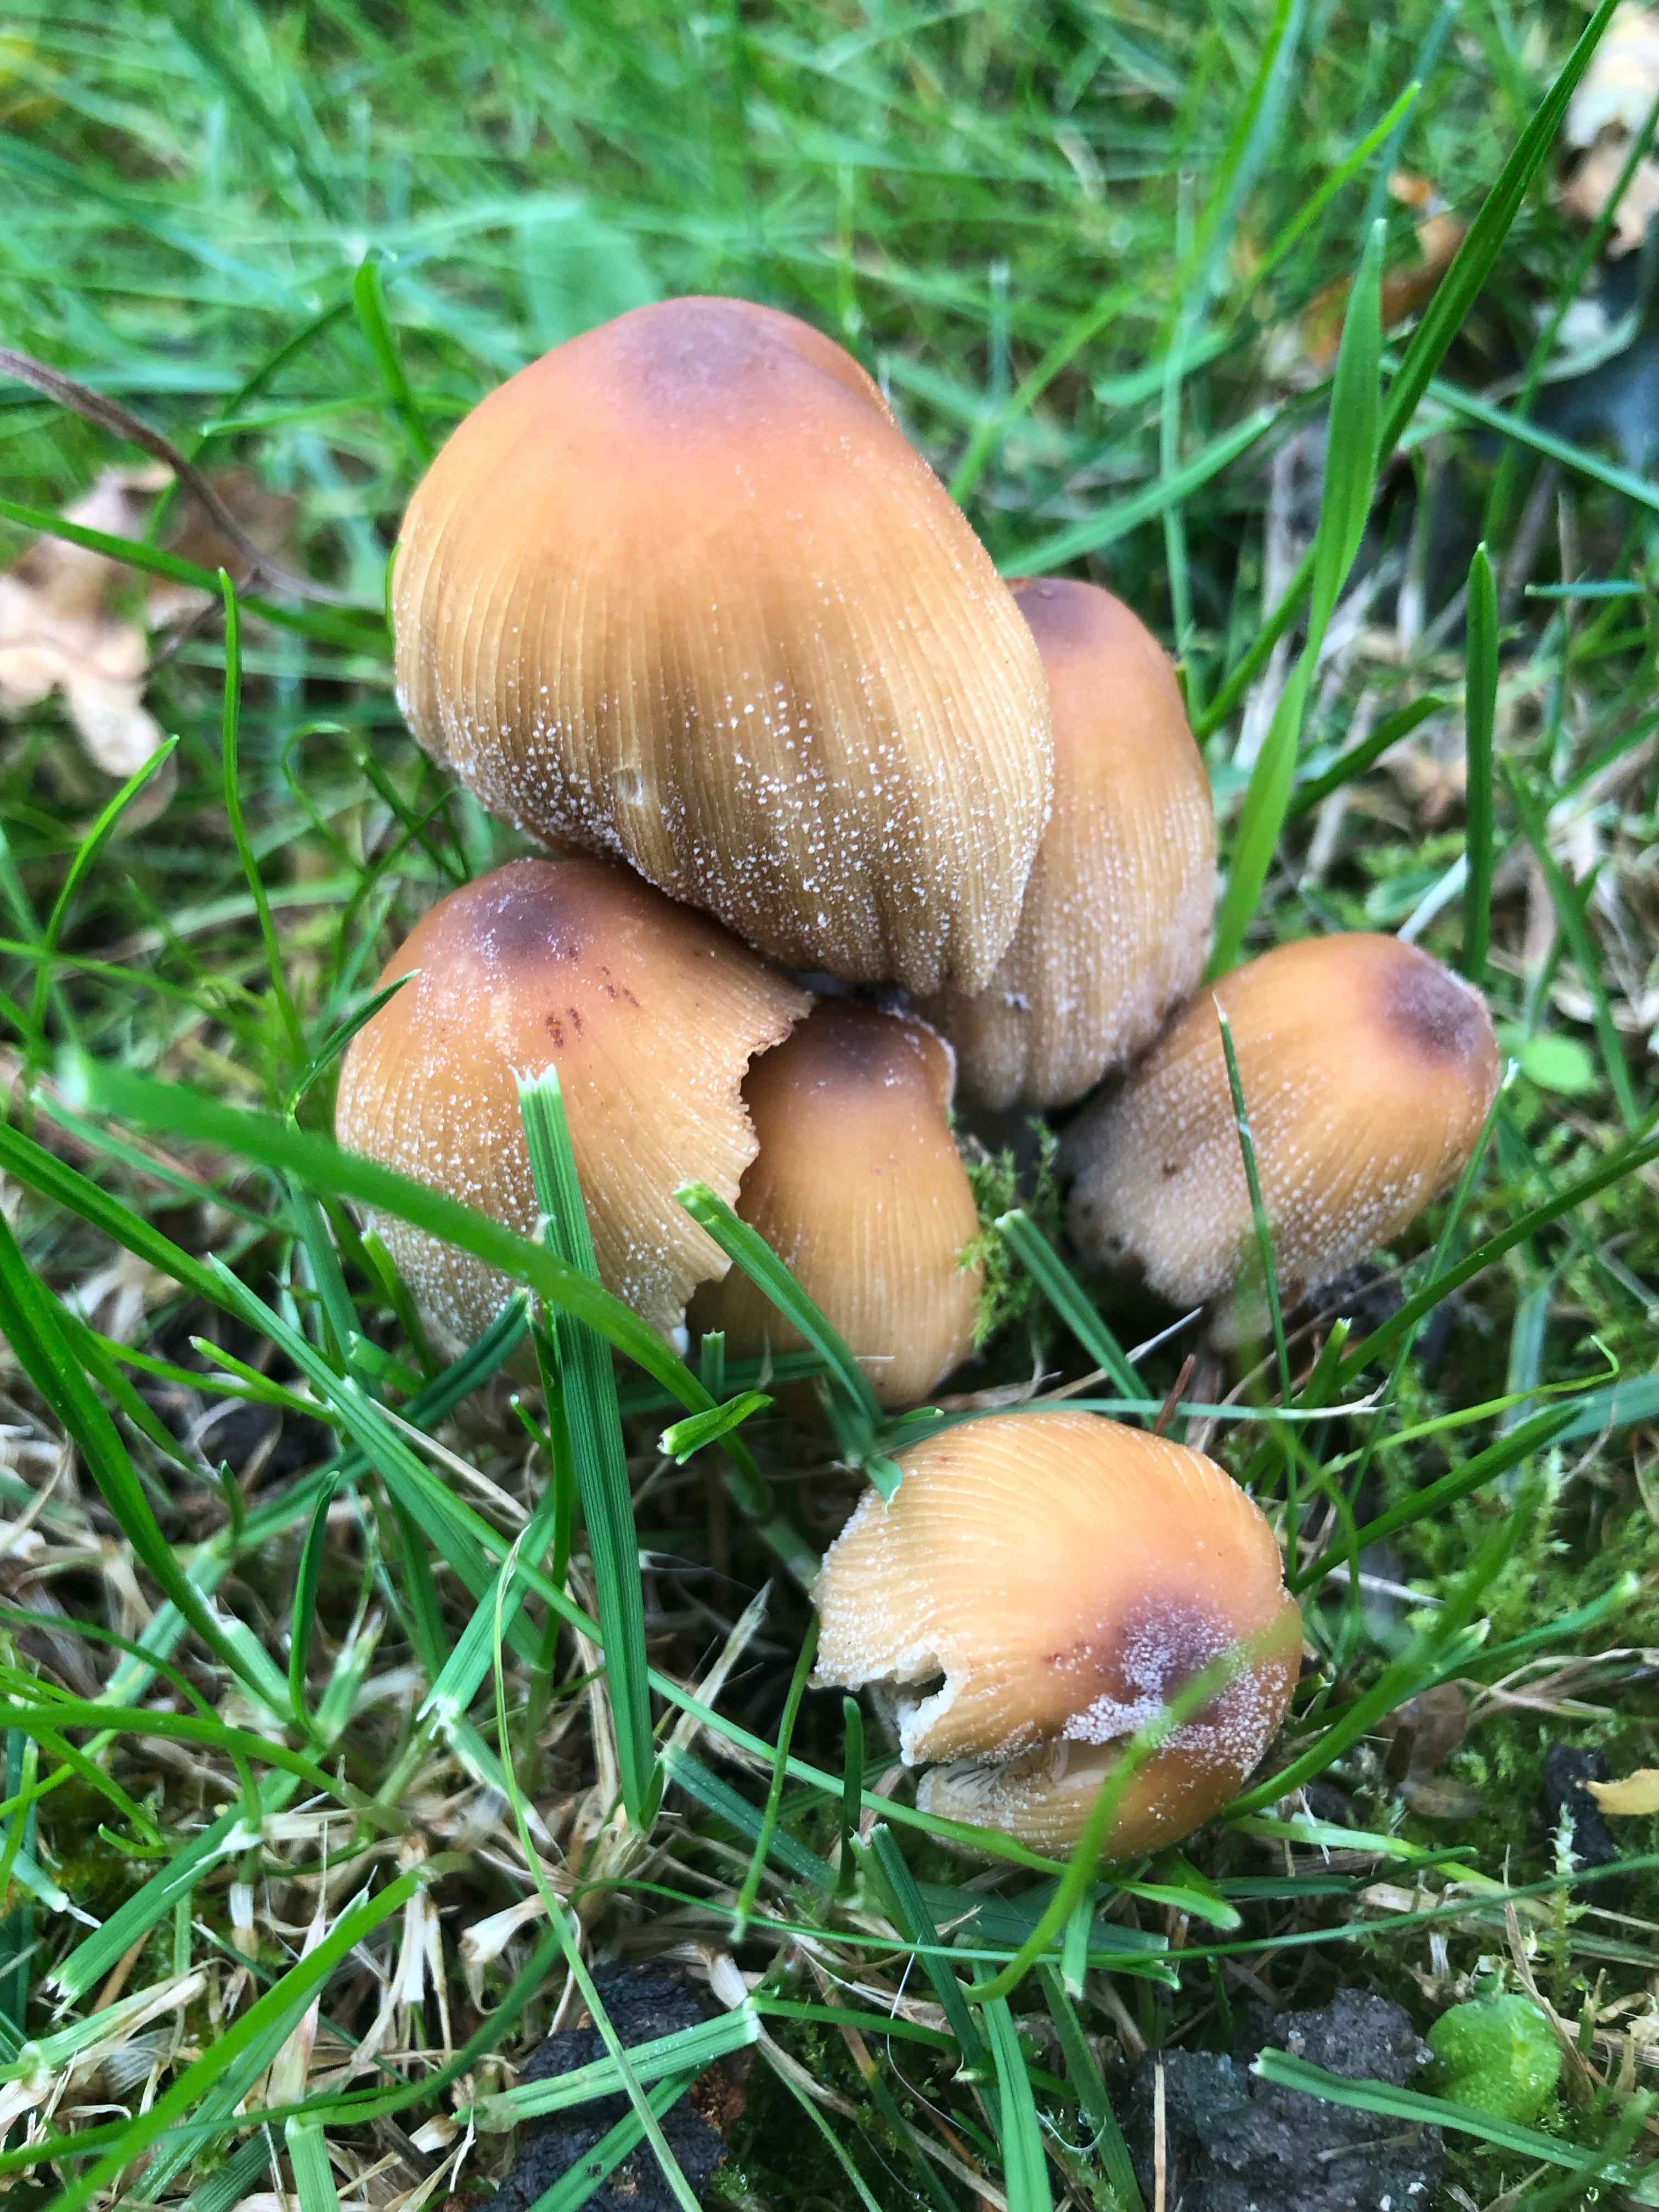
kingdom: Fungi
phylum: Basidiomycota
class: Agaricomycetes
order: Agaricales
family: Psathyrellaceae
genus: Coprinellus
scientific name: Coprinellus
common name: blækhat
